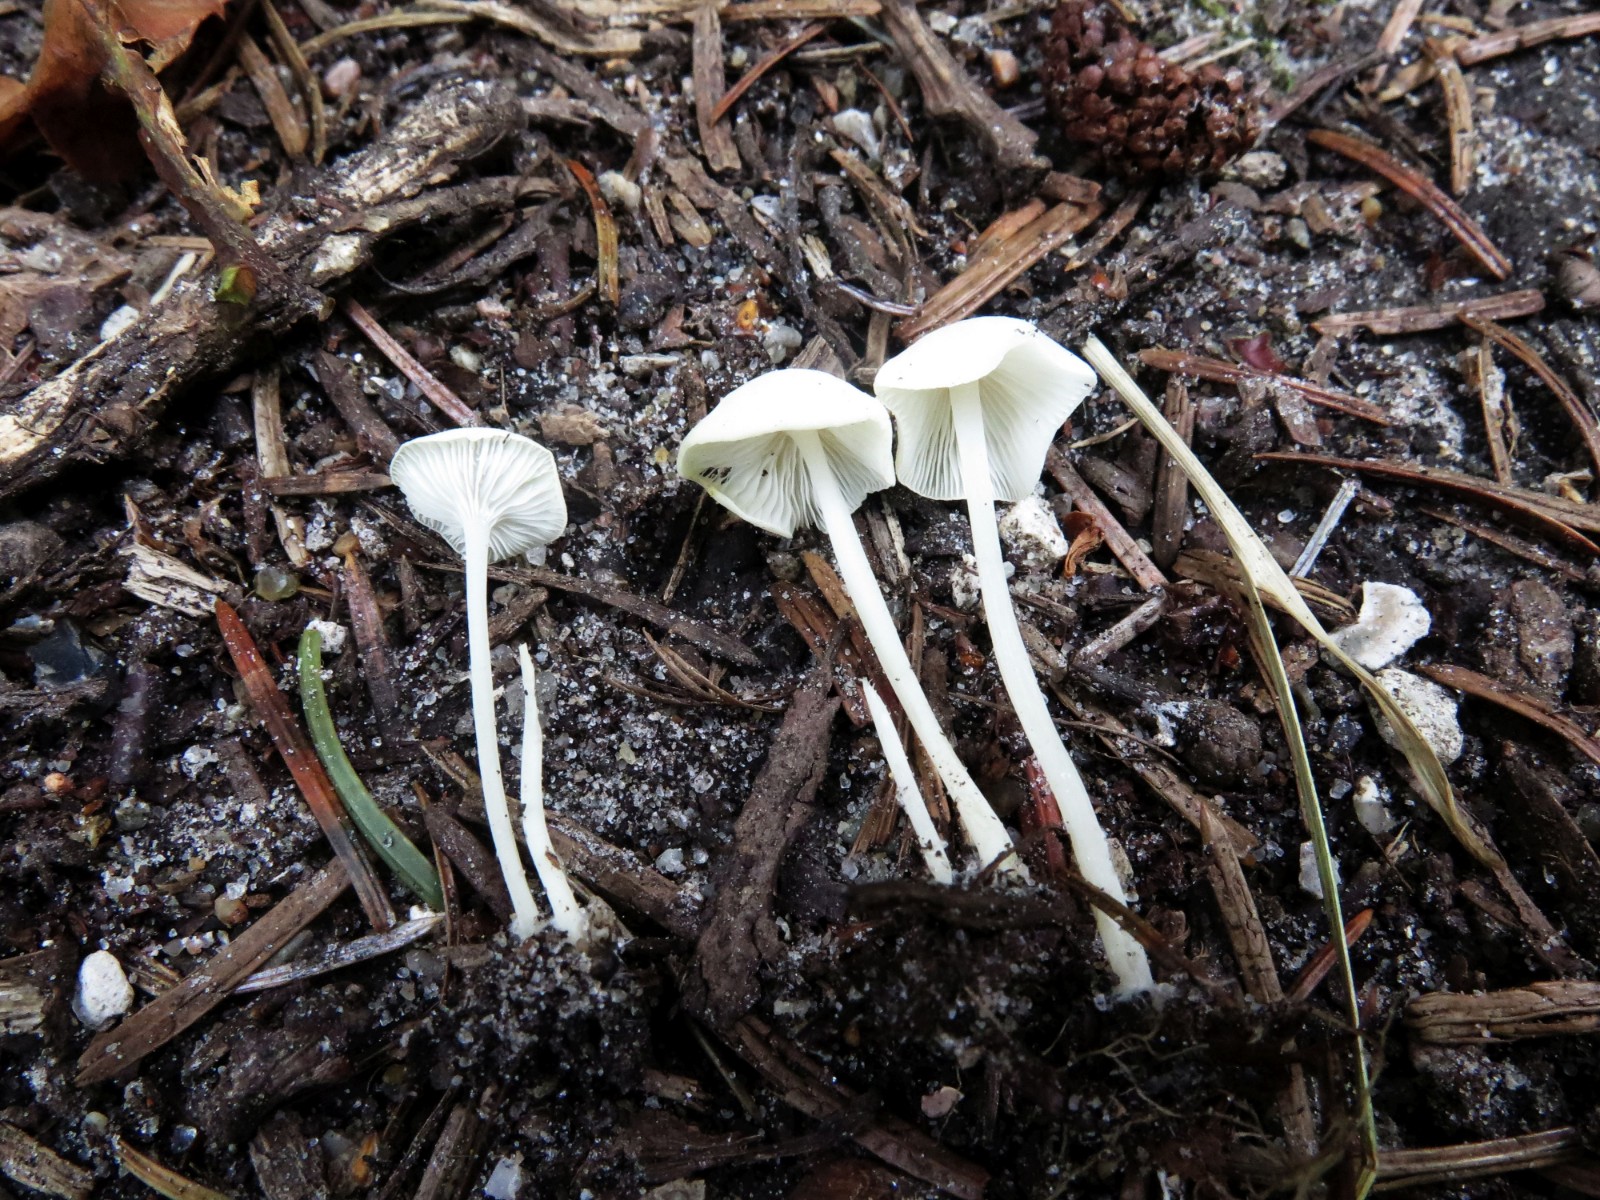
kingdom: Fungi
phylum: Basidiomycota
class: Agaricomycetes
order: Agaricales
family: Mycenaceae
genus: Hemimycena
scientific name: Hemimycena cucullata
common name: tætbladet huesvamp
